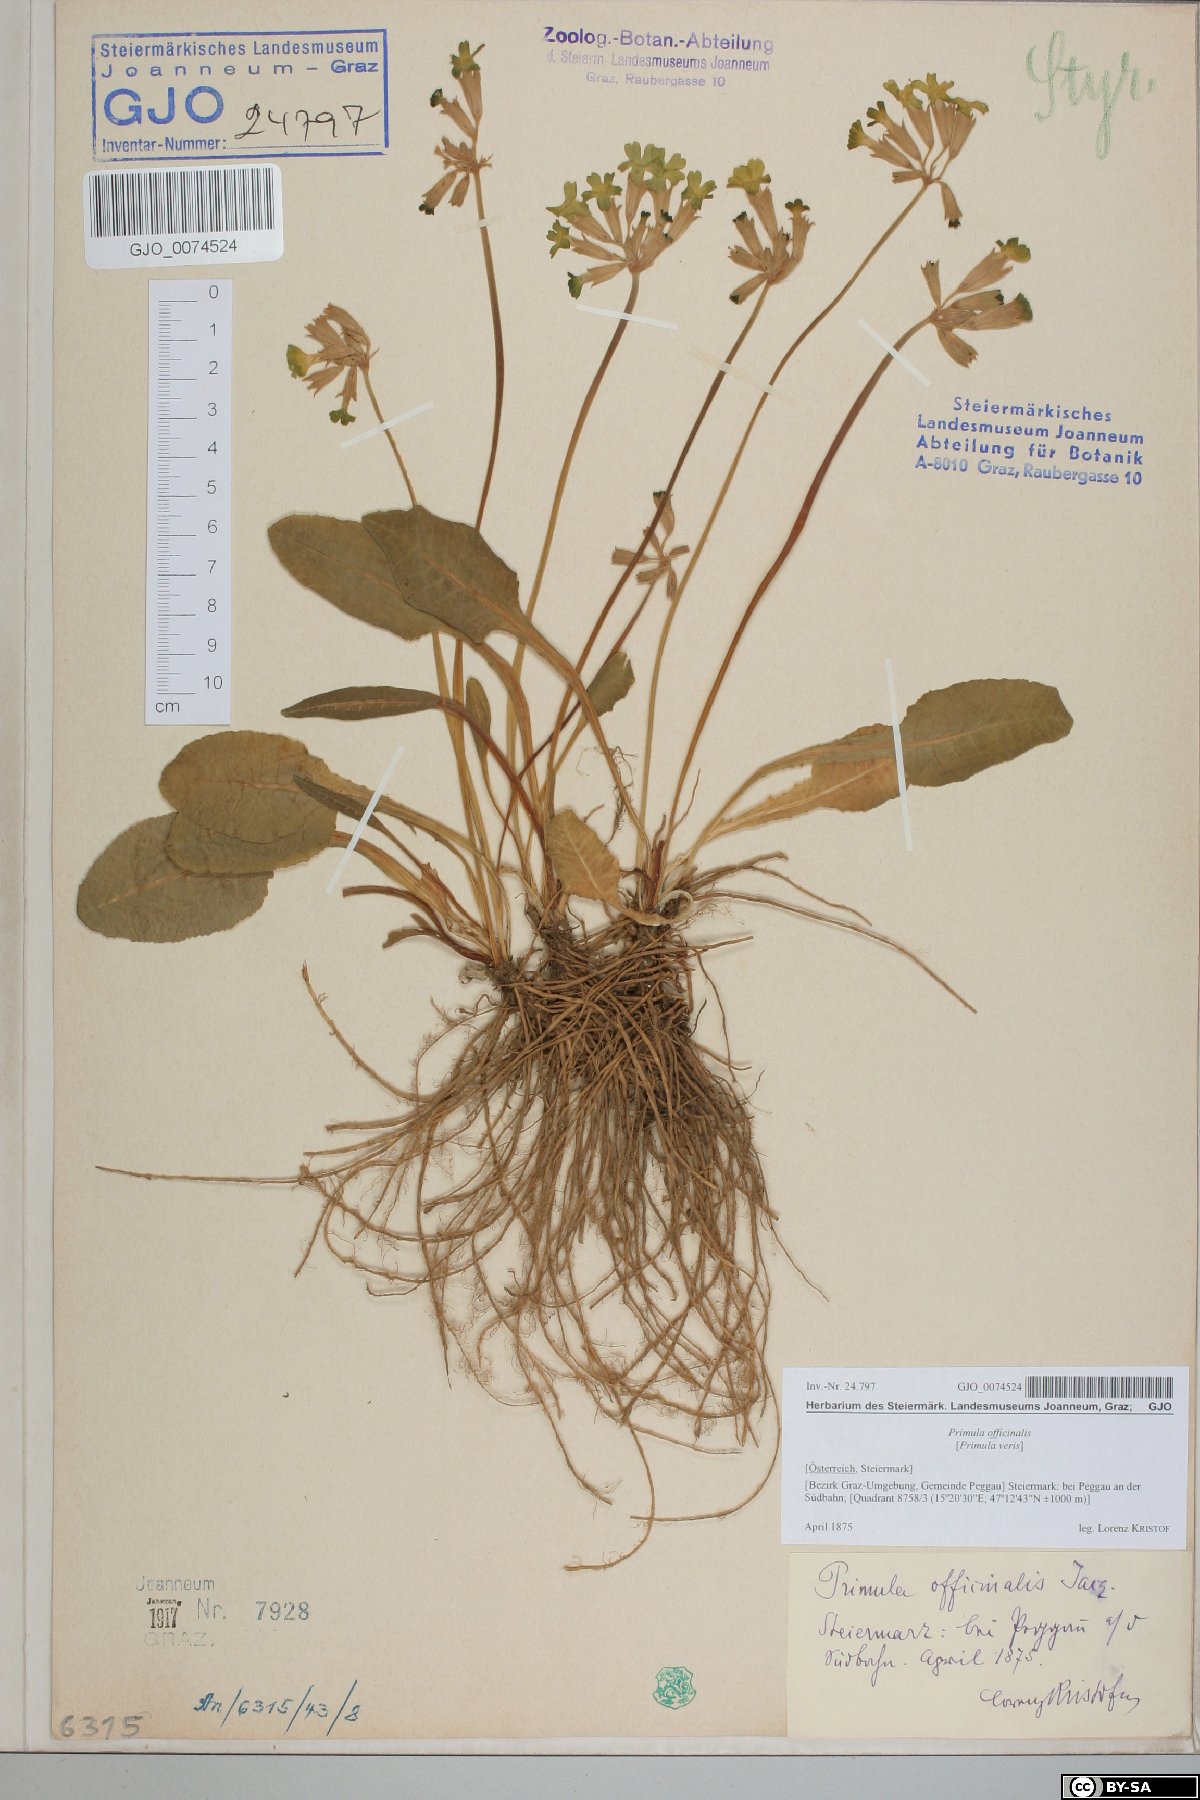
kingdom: Plantae
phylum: Tracheophyta
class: Magnoliopsida
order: Ericales
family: Primulaceae
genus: Primula
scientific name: Primula veris
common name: Cowslip
